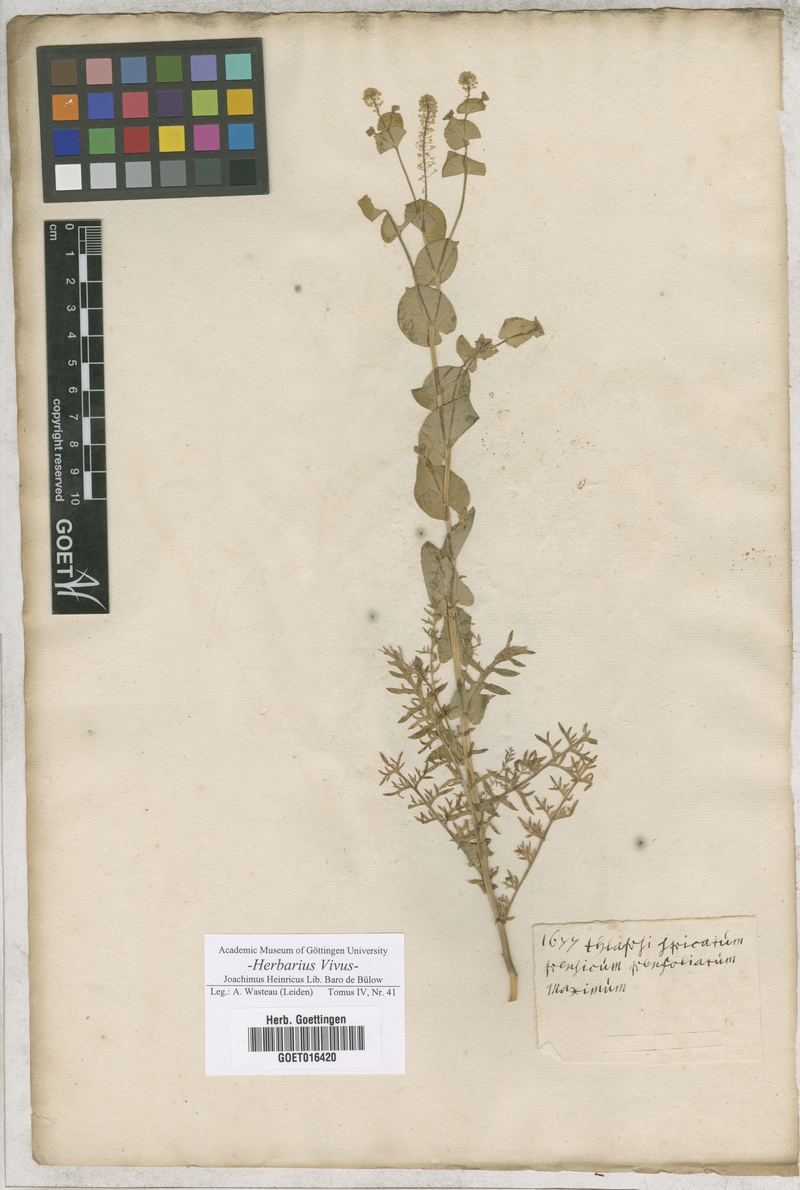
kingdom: Plantae
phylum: Tracheophyta
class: Magnoliopsida
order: Brassicales
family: Brassicaceae
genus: Lepidium
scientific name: Lepidium perfoliatum
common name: Perfoliate pepperwort
